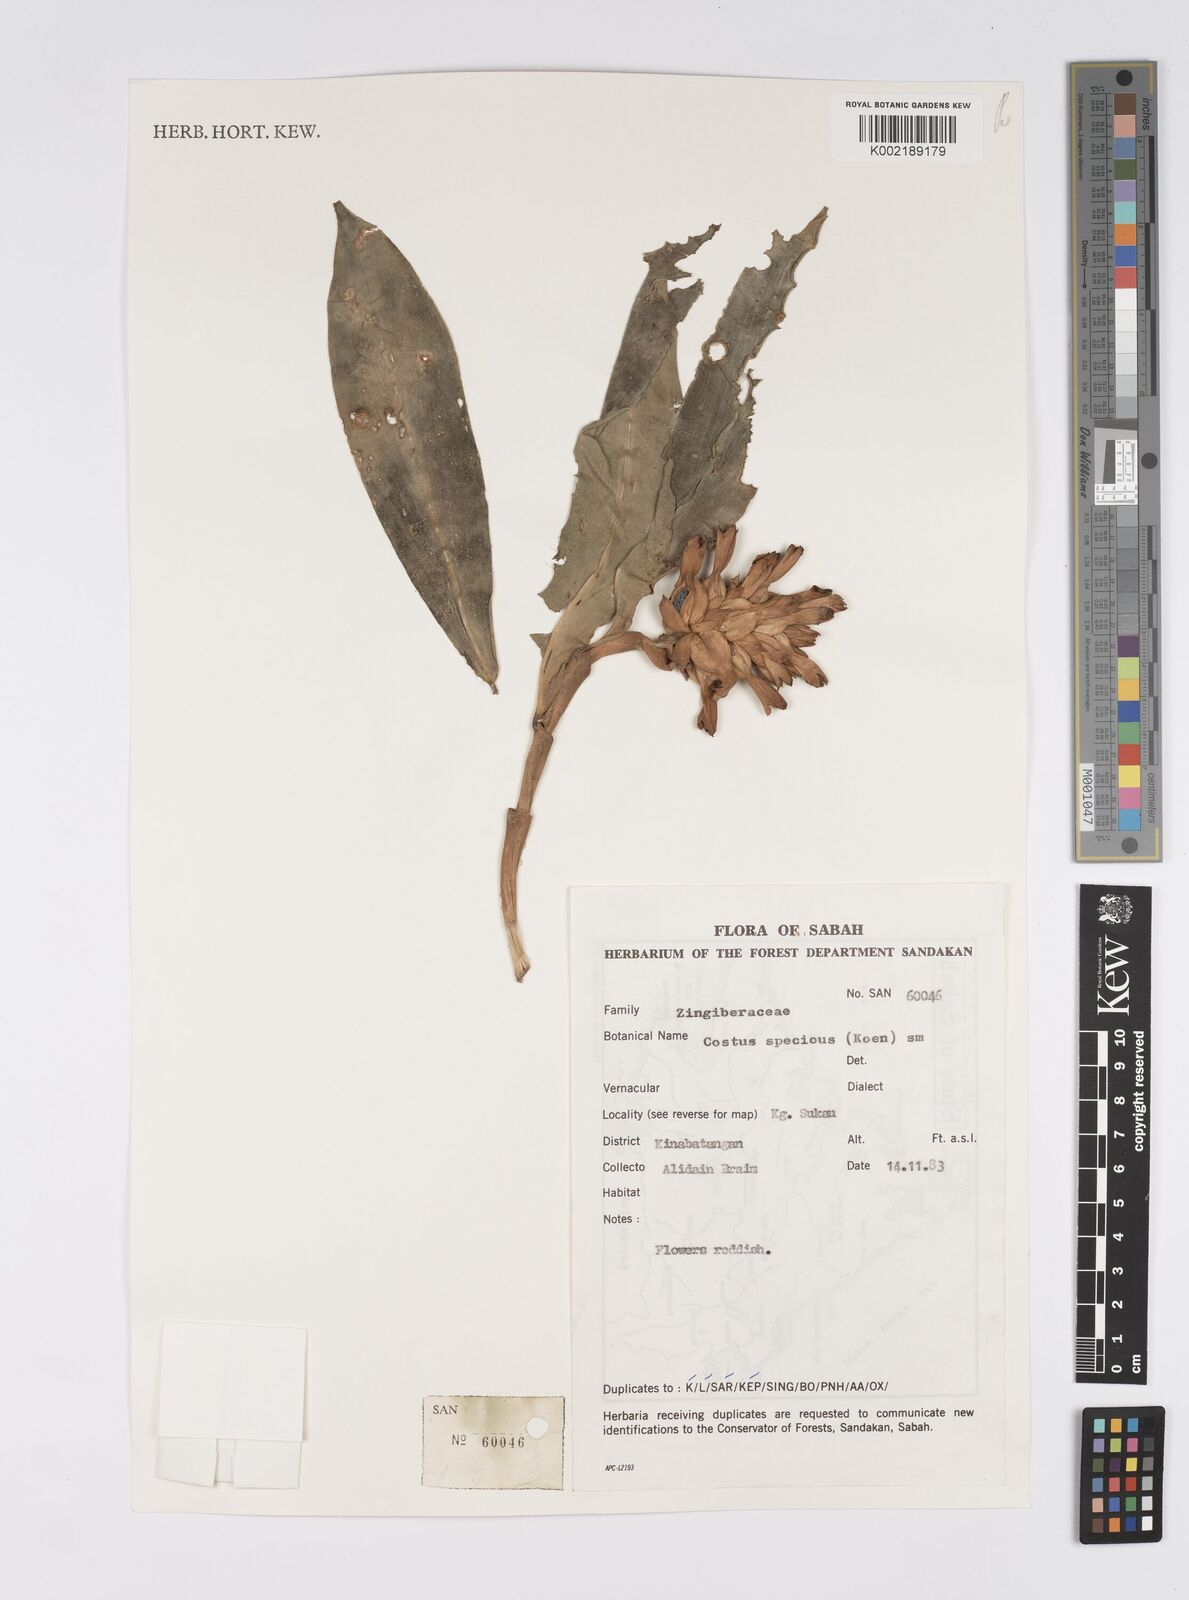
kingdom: Plantae
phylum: Tracheophyta
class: Liliopsida
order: Zingiberales
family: Costaceae
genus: Hellenia
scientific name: Hellenia speciosa
